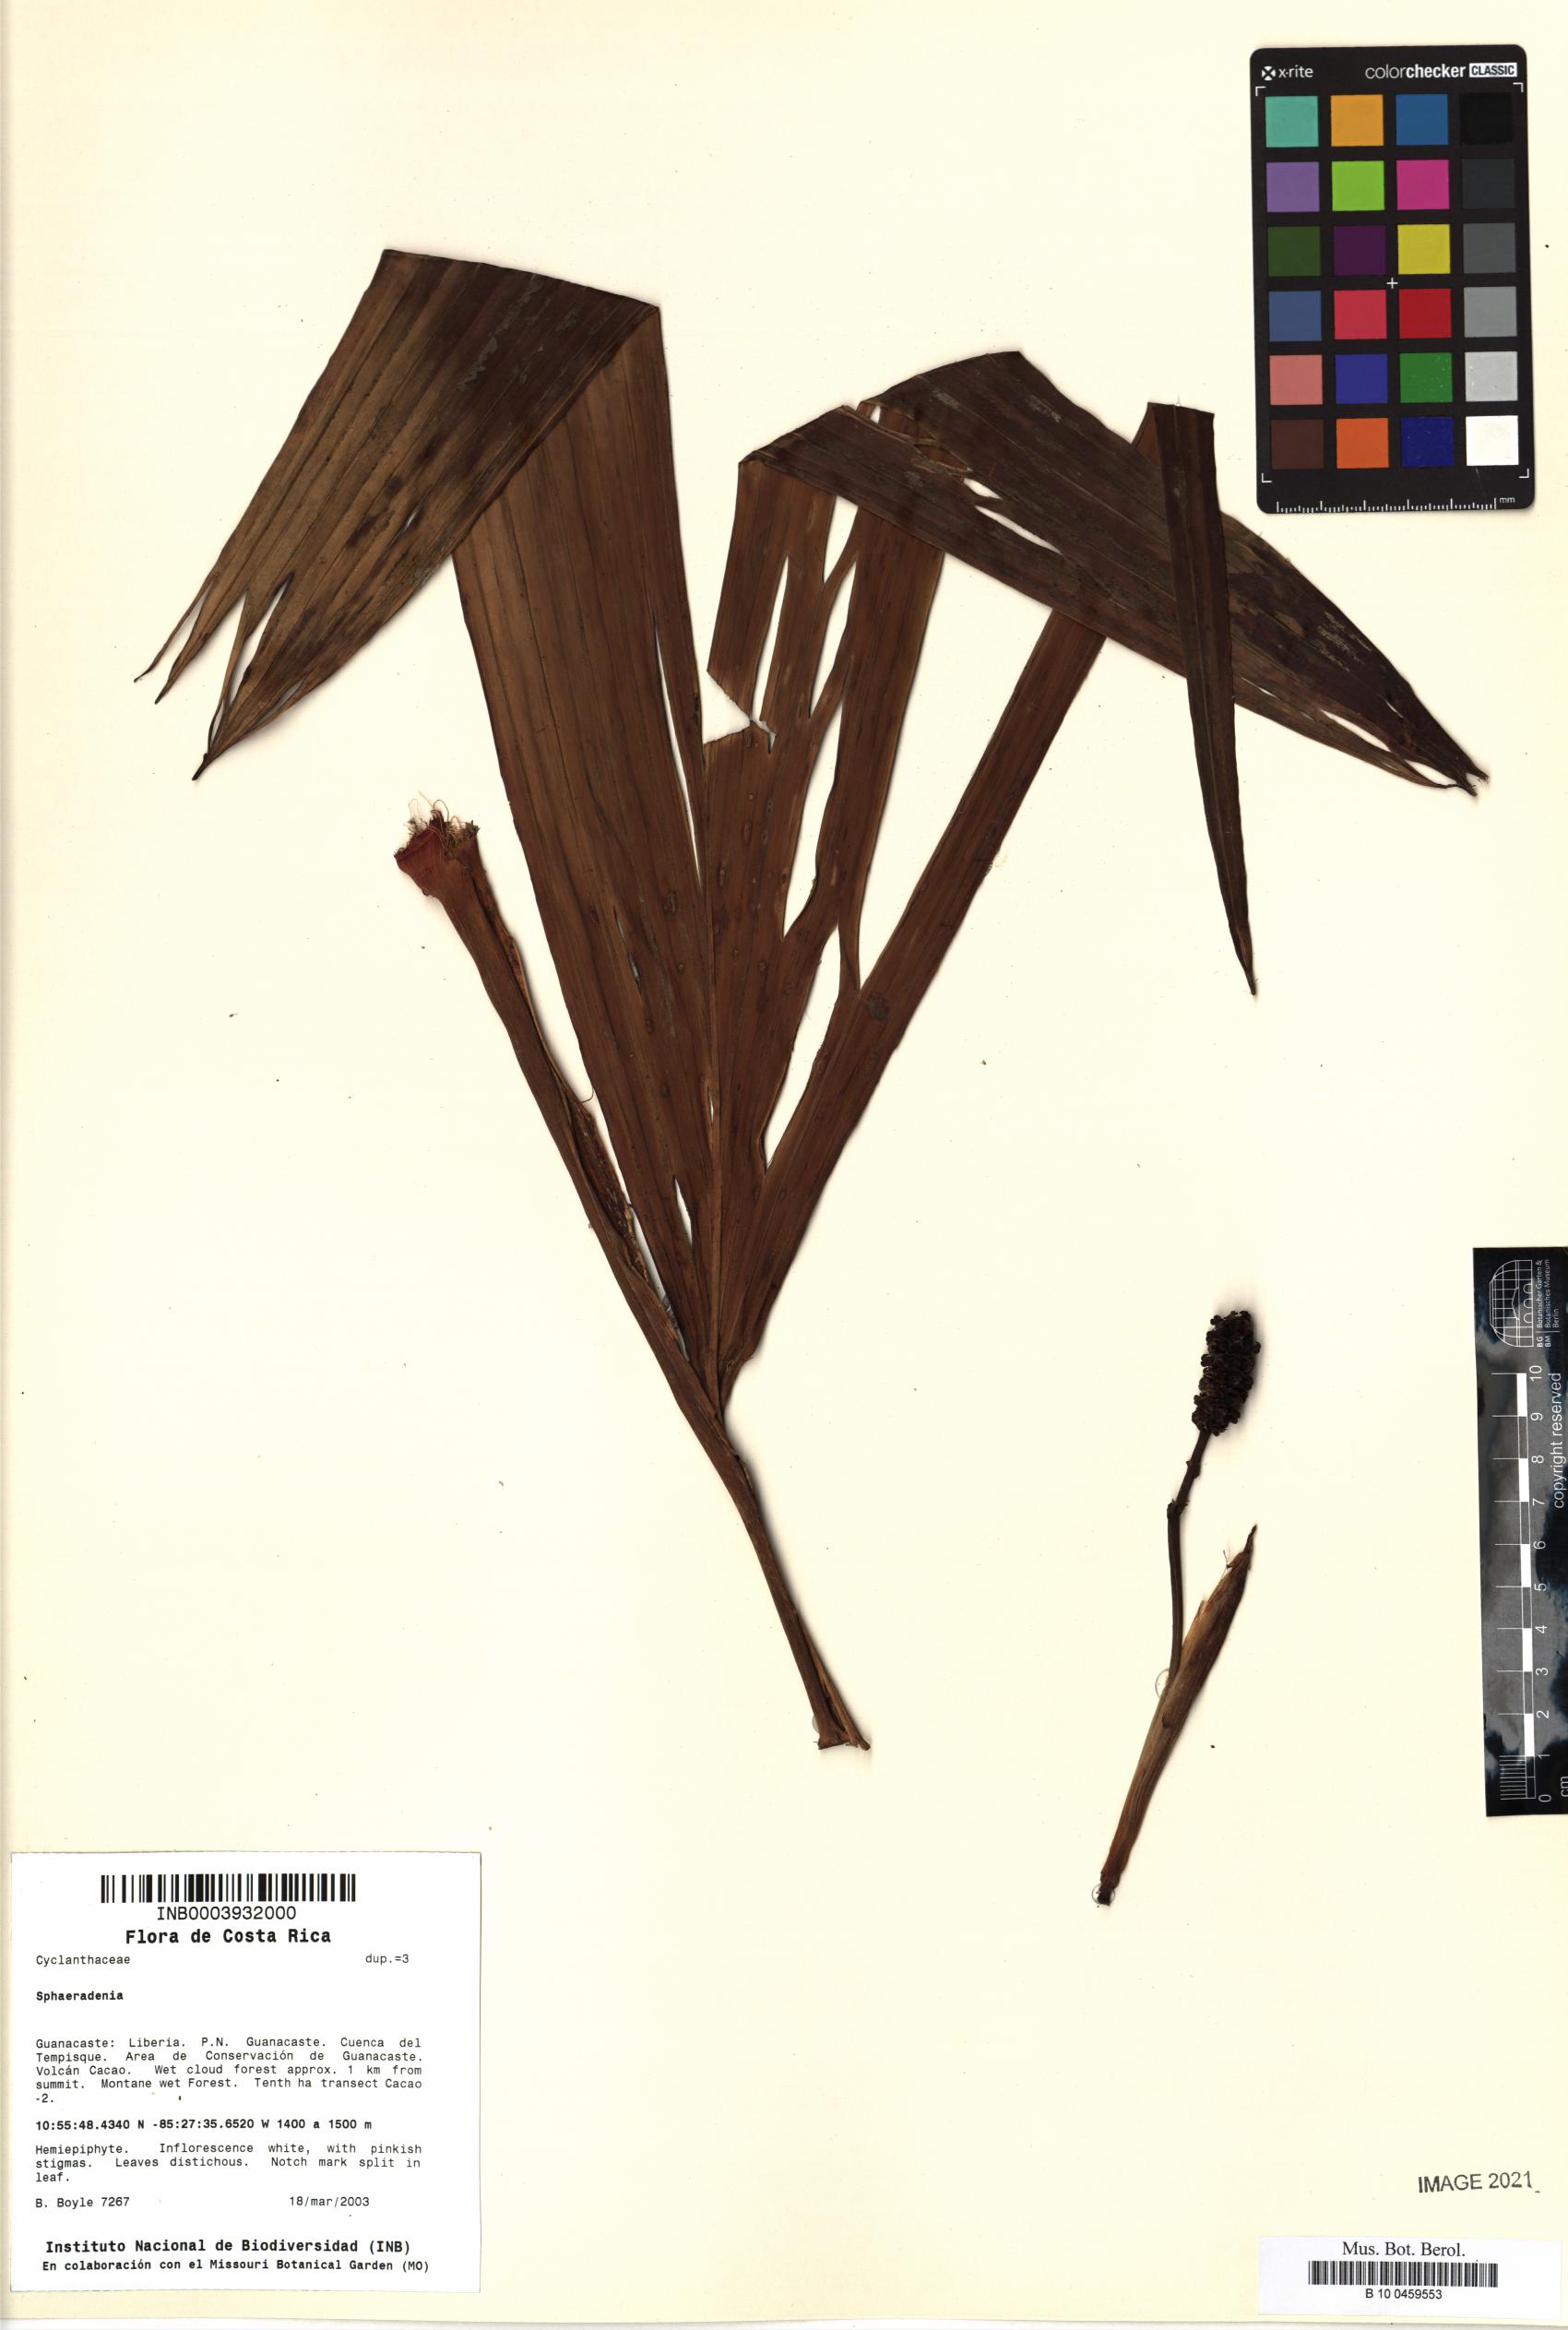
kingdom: Plantae
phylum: Tracheophyta
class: Liliopsida
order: Pandanales
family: Cyclanthaceae
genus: Sphaeradenia
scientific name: Sphaeradenia
